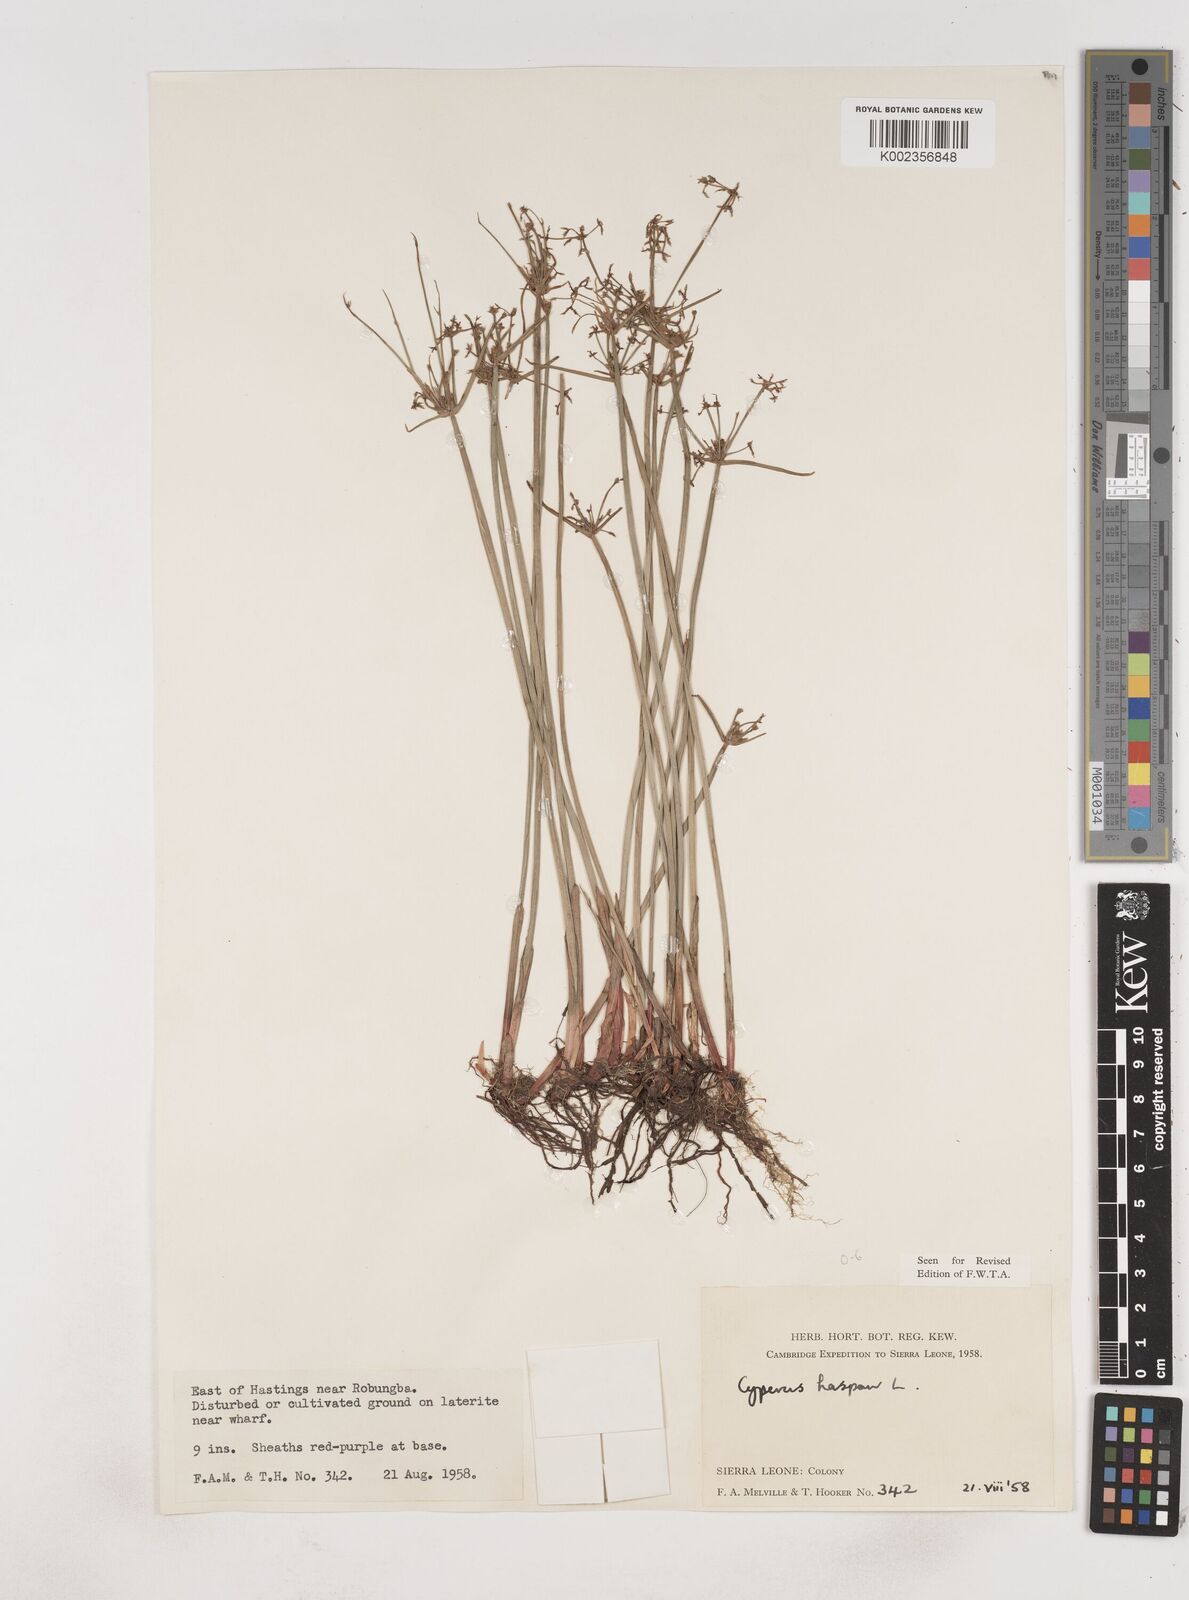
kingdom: Plantae
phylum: Tracheophyta
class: Liliopsida
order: Poales
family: Cyperaceae
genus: Cyperus
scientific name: Cyperus haspan
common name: Haspan flatsedge
